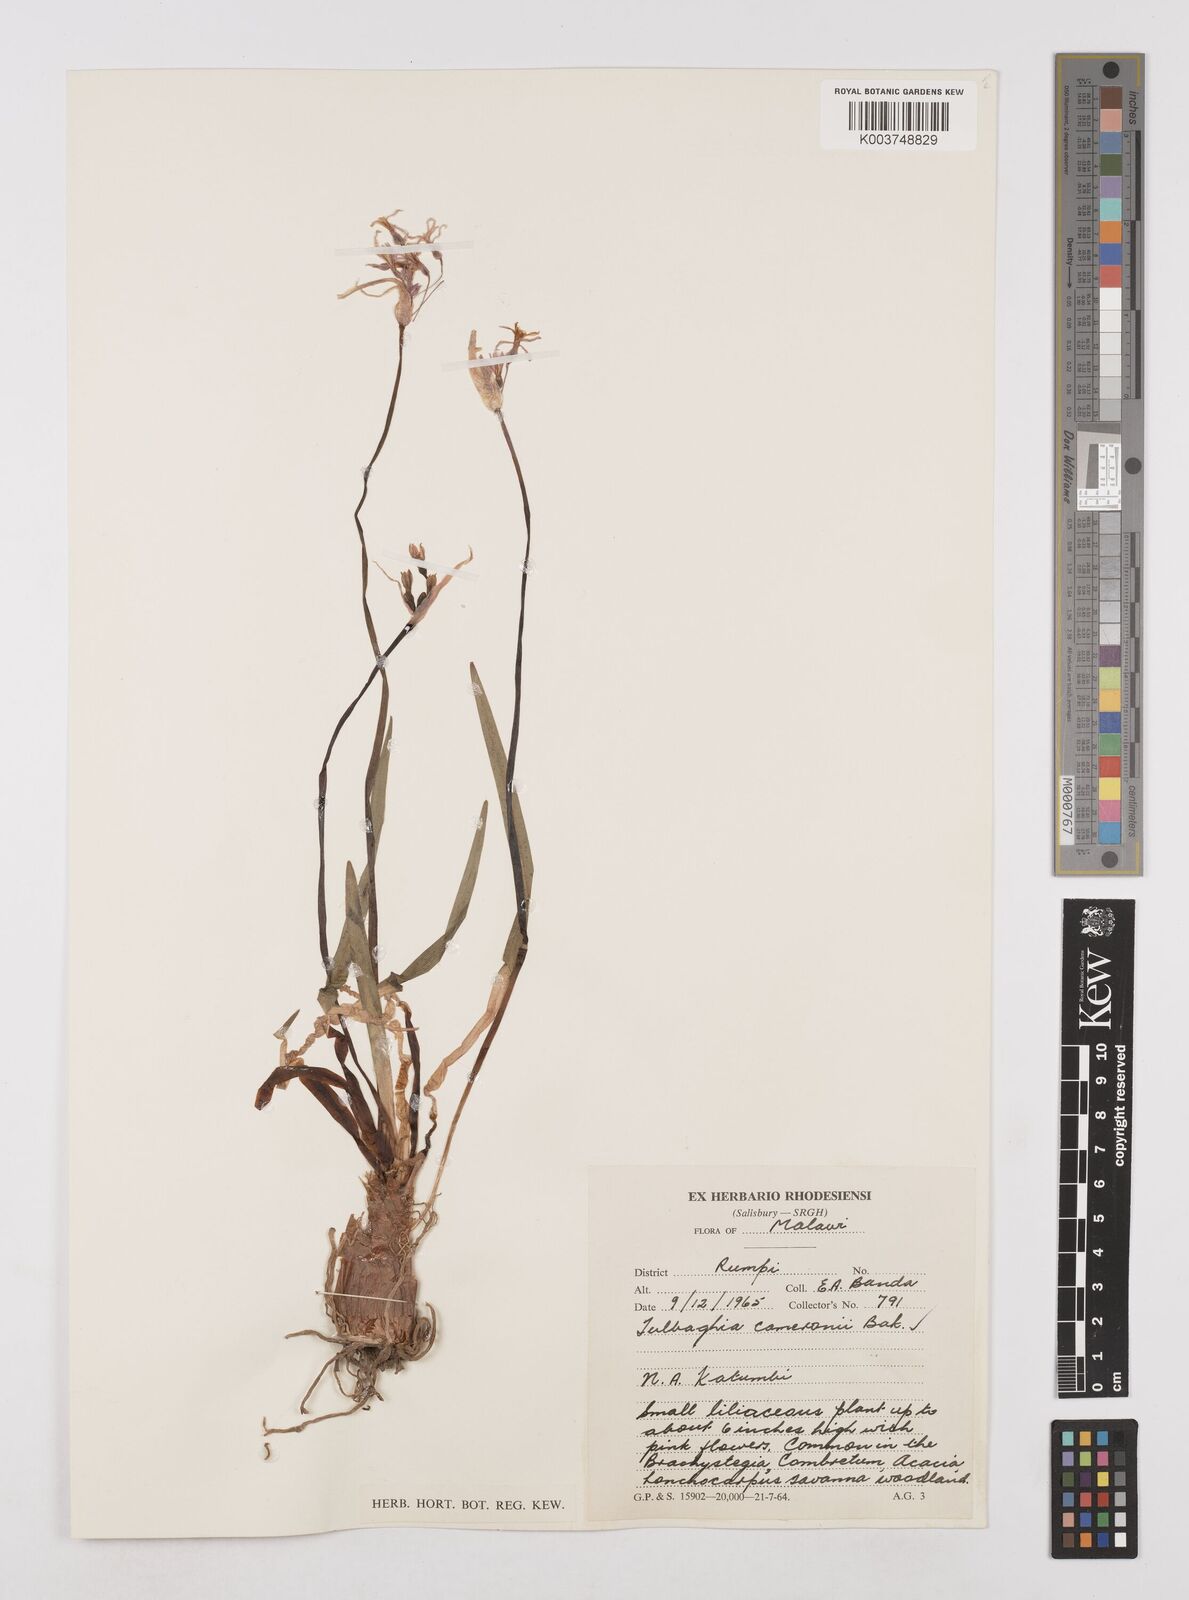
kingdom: Plantae
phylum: Tracheophyta
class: Liliopsida
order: Asparagales
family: Amaryllidaceae
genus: Tulbaghia
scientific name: Tulbaghia cameronii
